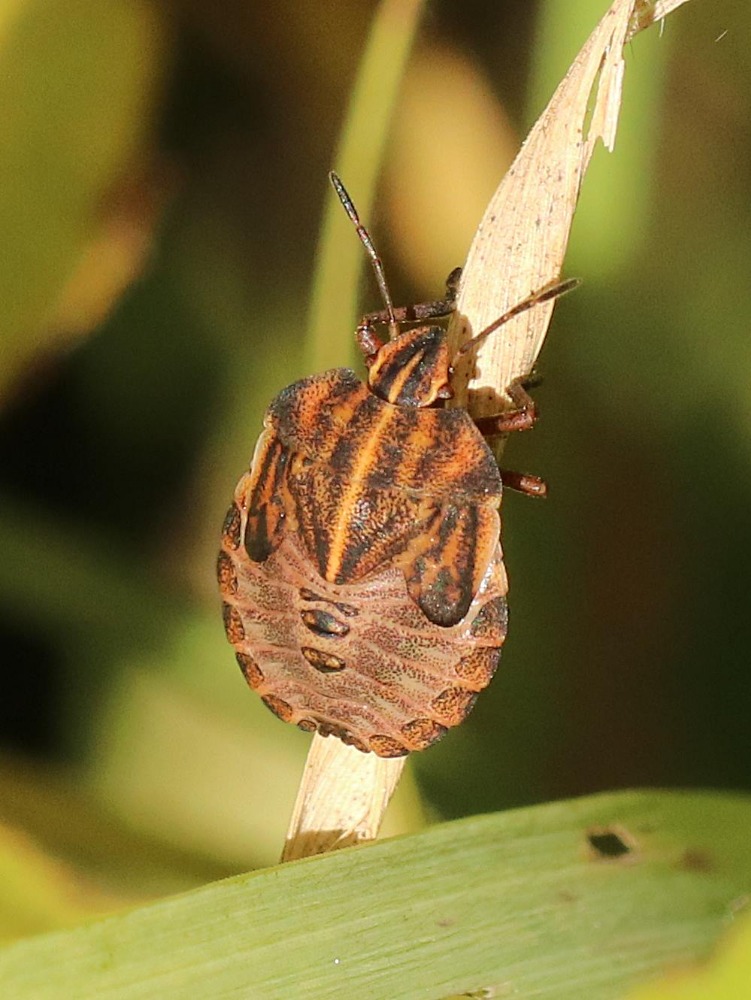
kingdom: Animalia
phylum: Arthropoda
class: Insecta
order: Hemiptera
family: Pentatomidae
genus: Graphosoma
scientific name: Graphosoma italicum
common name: Stribetæge
